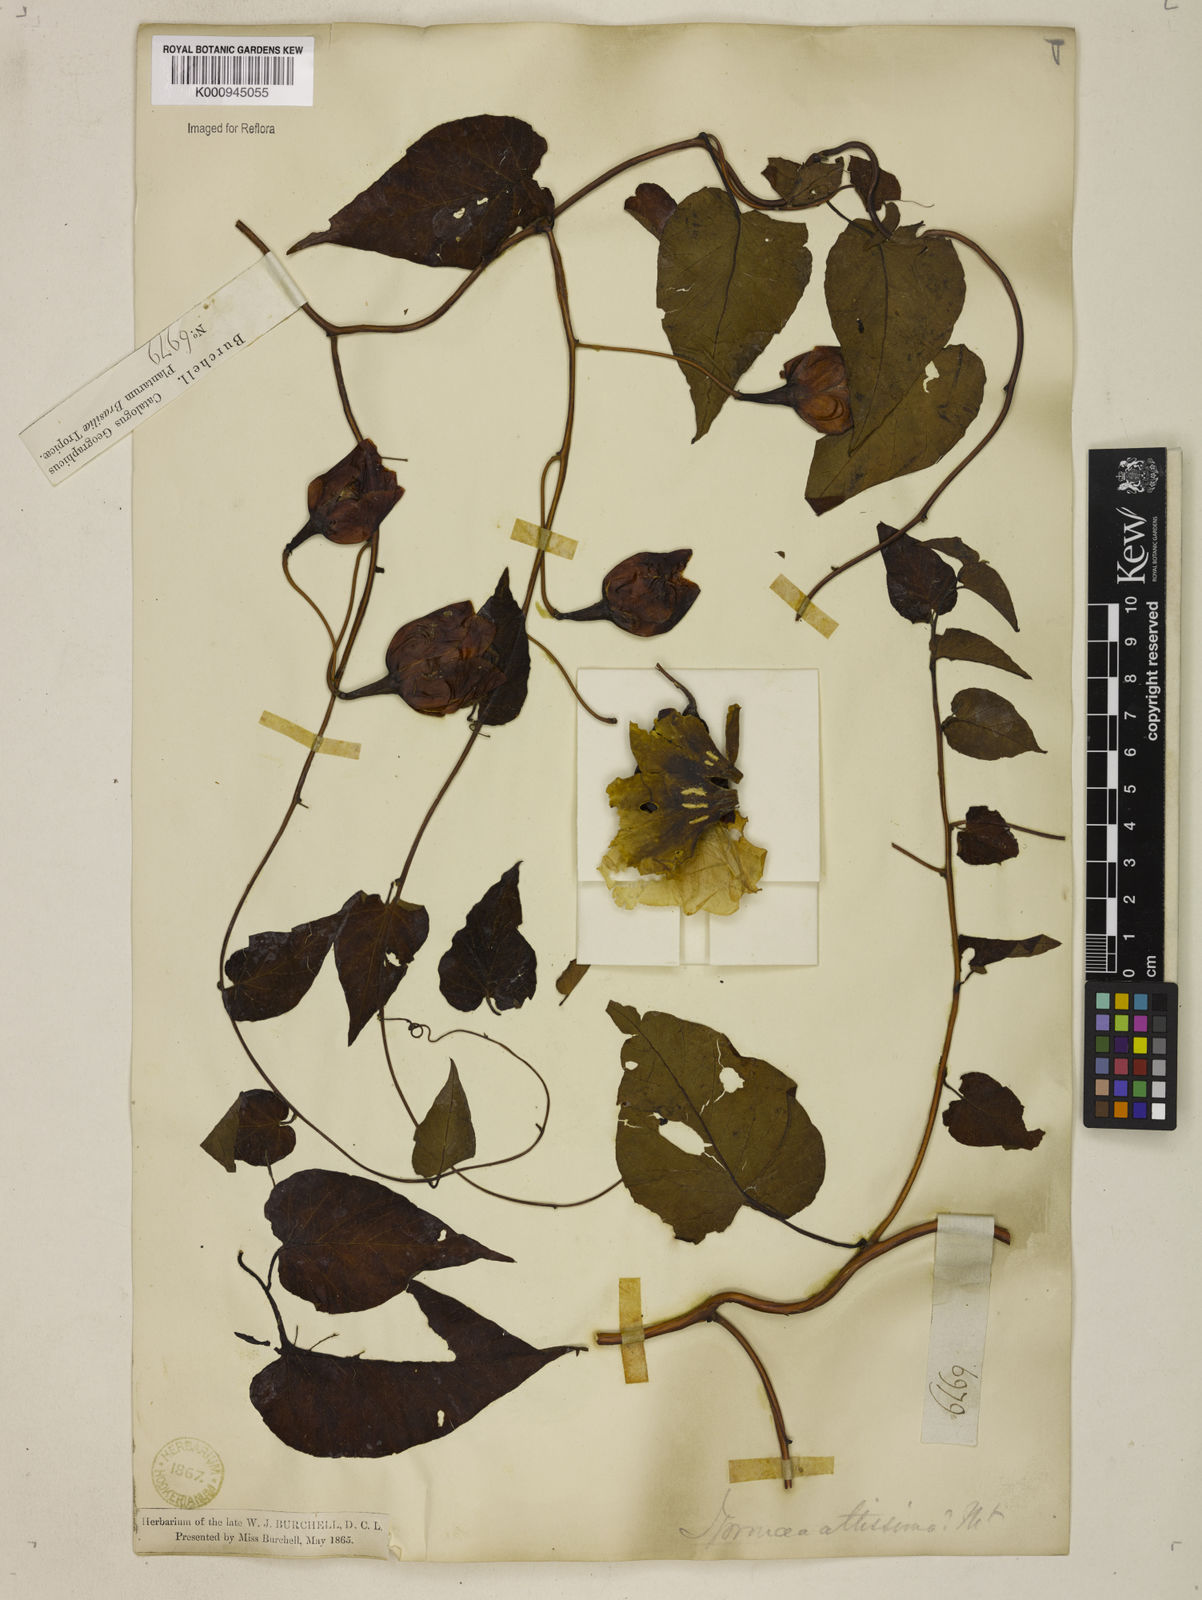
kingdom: Plantae
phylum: Tracheophyta
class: Magnoliopsida
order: Solanales
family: Convolvulaceae
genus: Operculina
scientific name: Operculina hamiltonii
